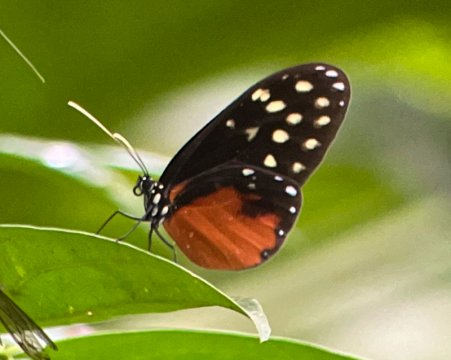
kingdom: Animalia
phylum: Arthropoda
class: Insecta
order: Lepidoptera
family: Nymphalidae
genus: Callithomia
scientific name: Callithomia hezia
